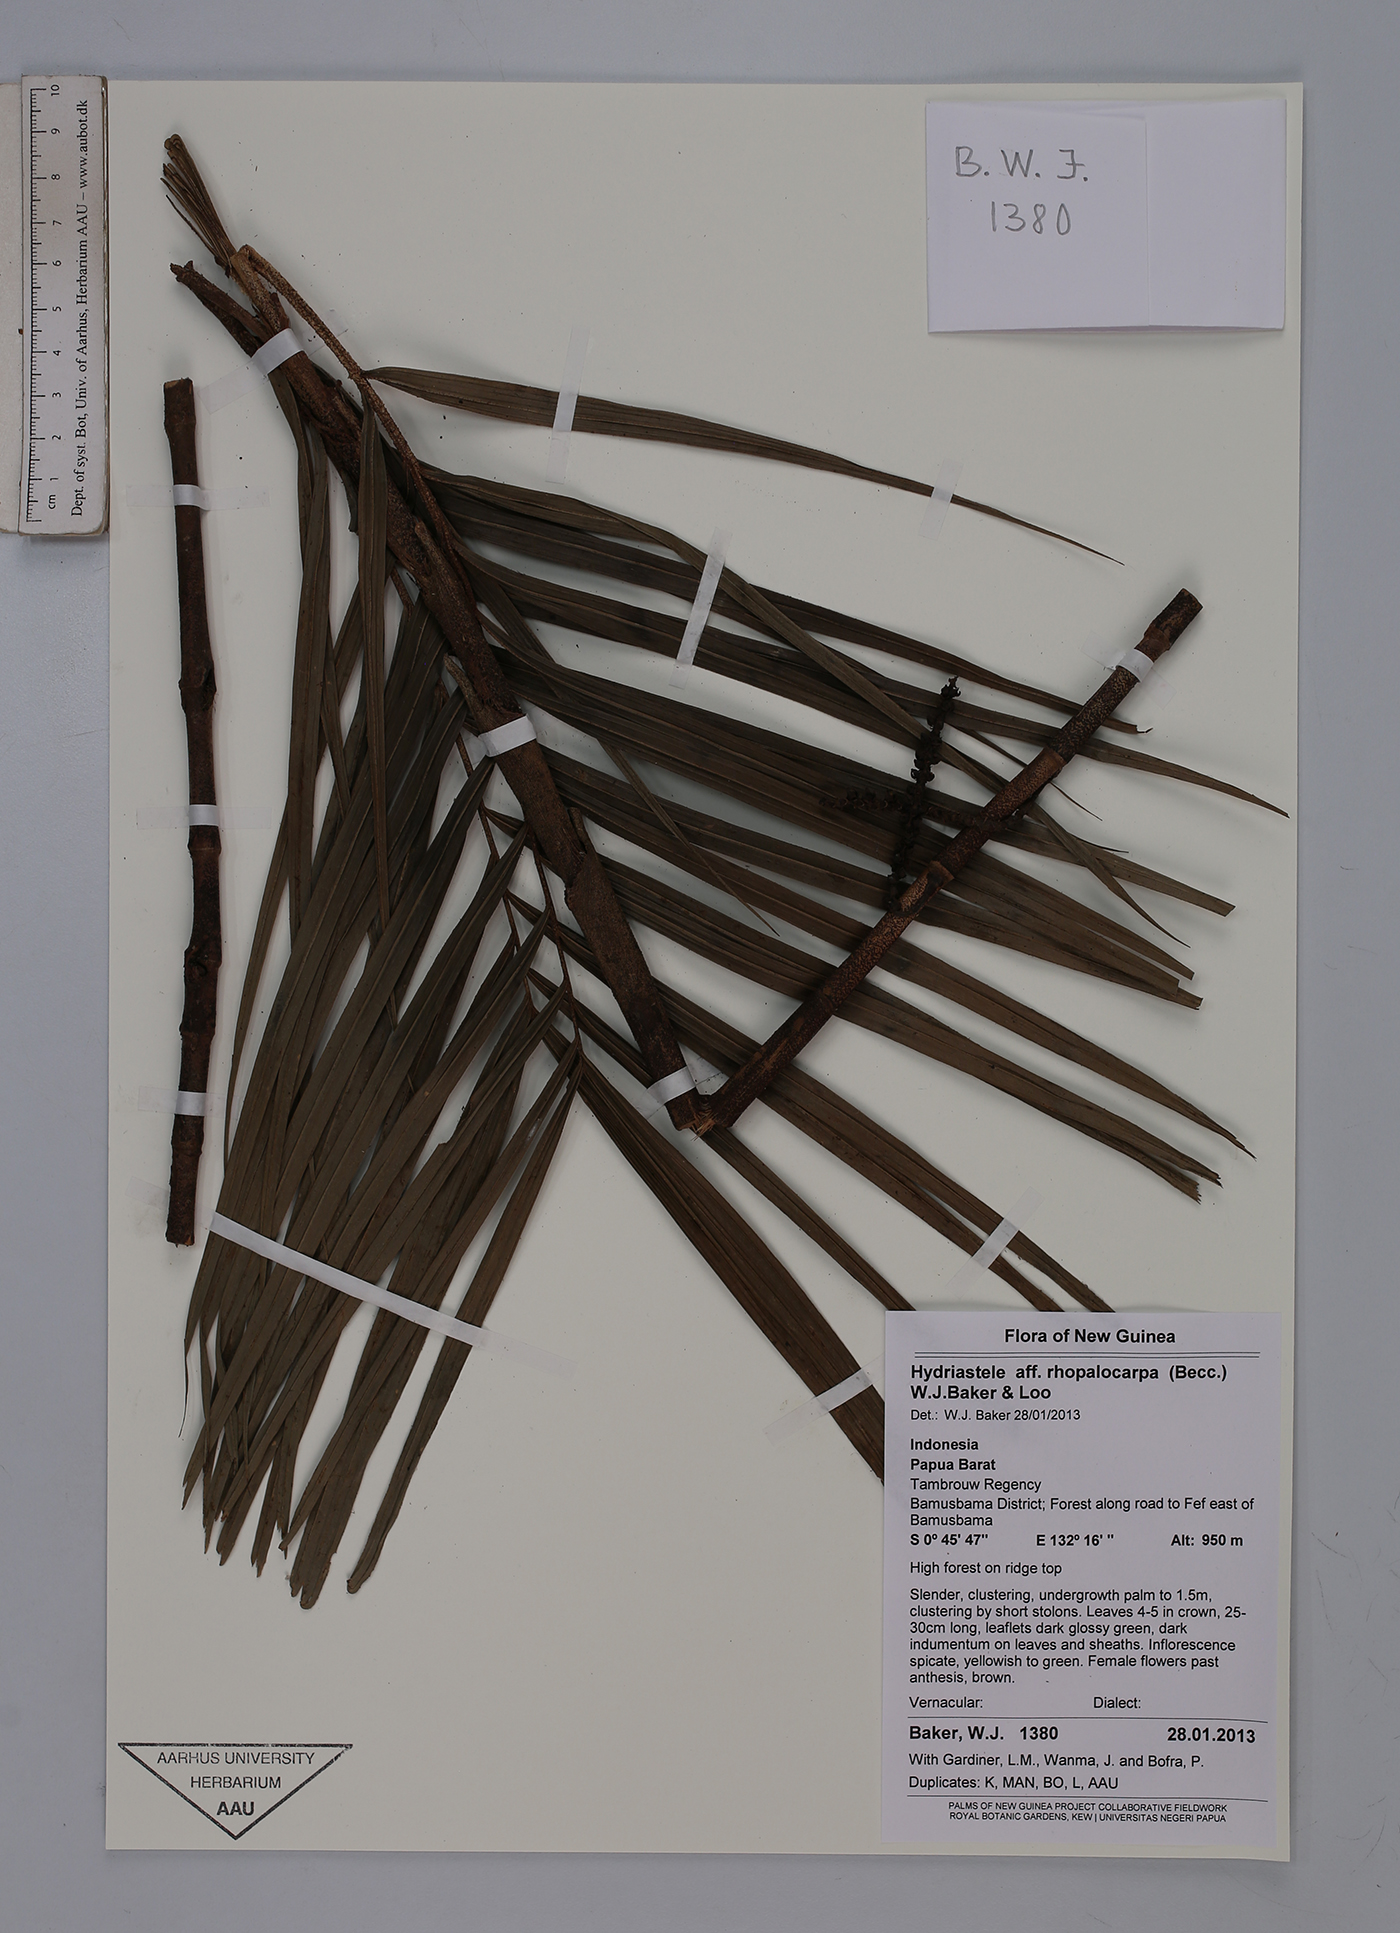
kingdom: Plantae
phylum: Tracheophyta
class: Liliopsida
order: Arecales
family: Arecaceae
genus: Hydriastele
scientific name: Hydriastele
